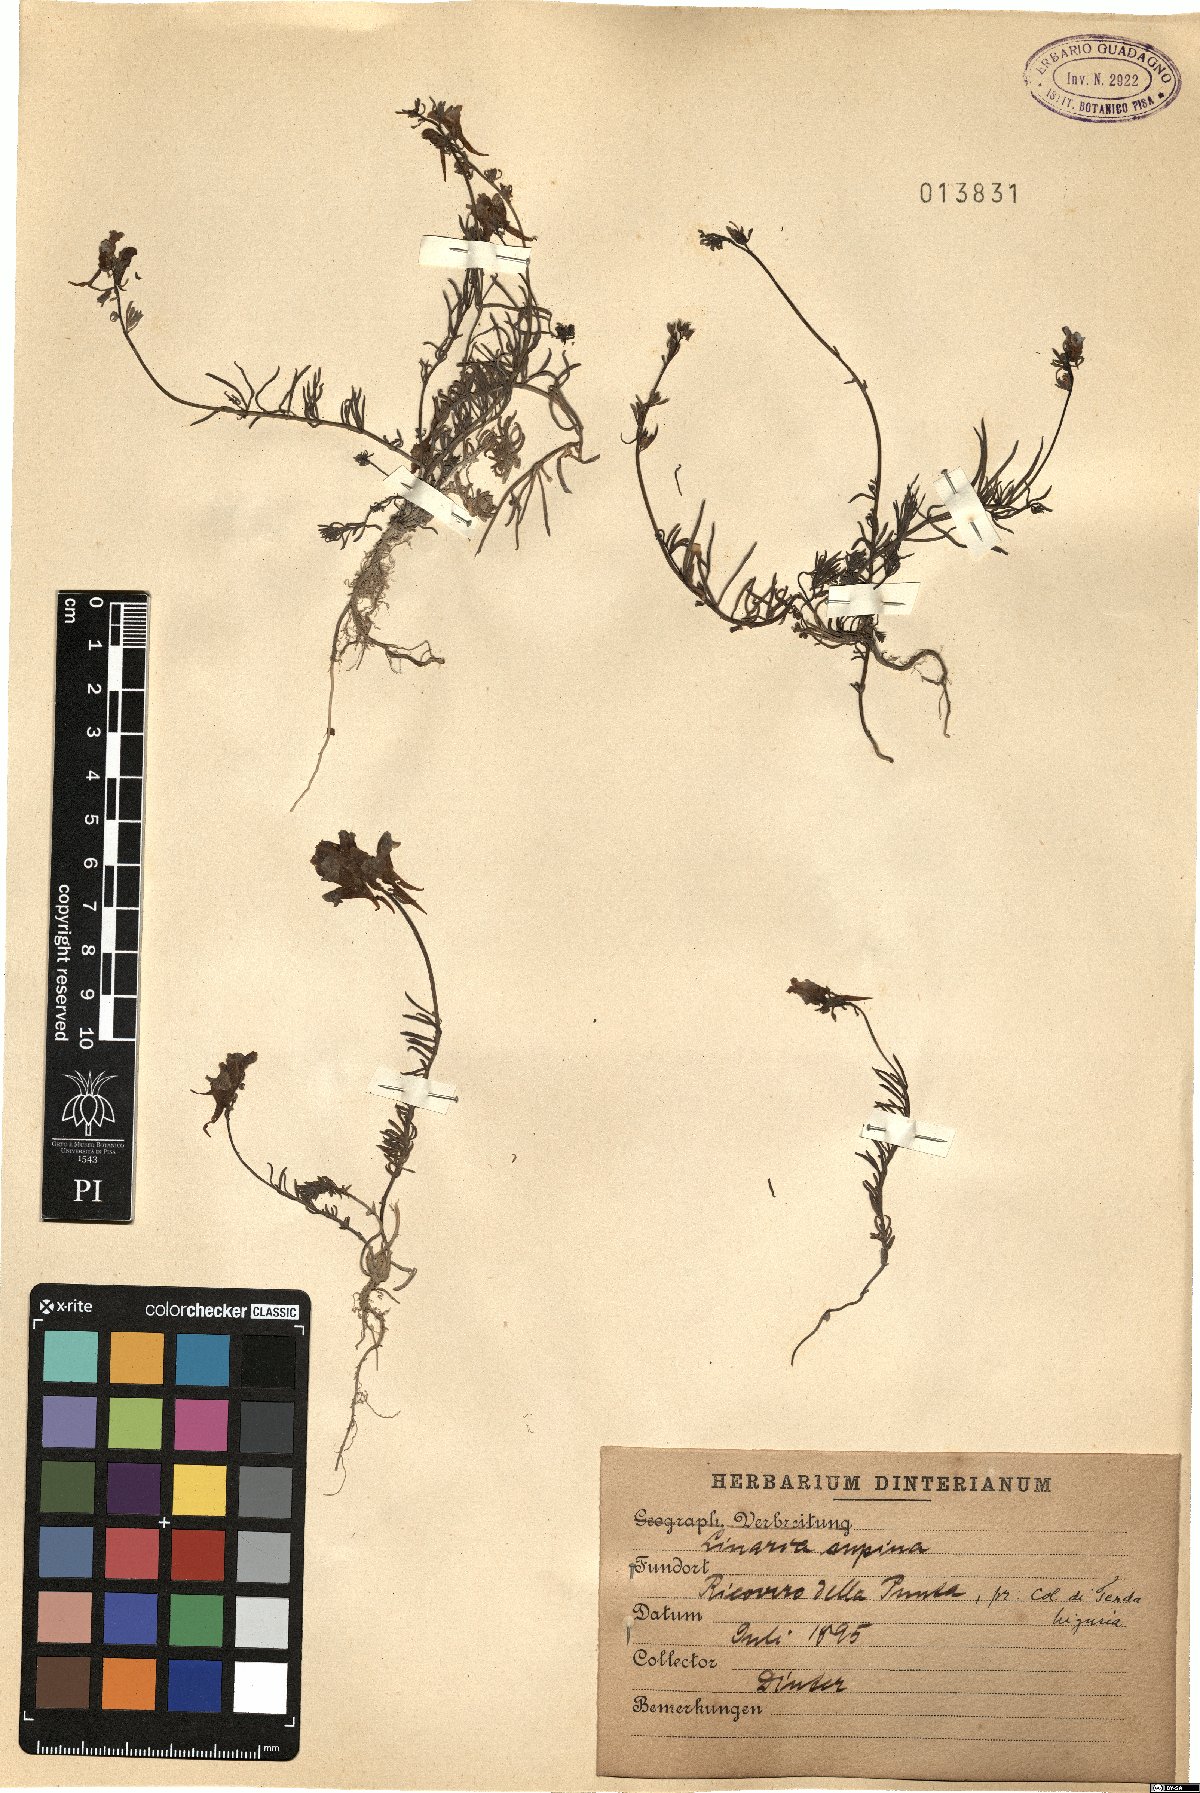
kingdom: Plantae
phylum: Tracheophyta
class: Magnoliopsida
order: Lamiales
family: Plantaginaceae
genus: Linaria
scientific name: Linaria supina
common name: Prostrate toadflax
